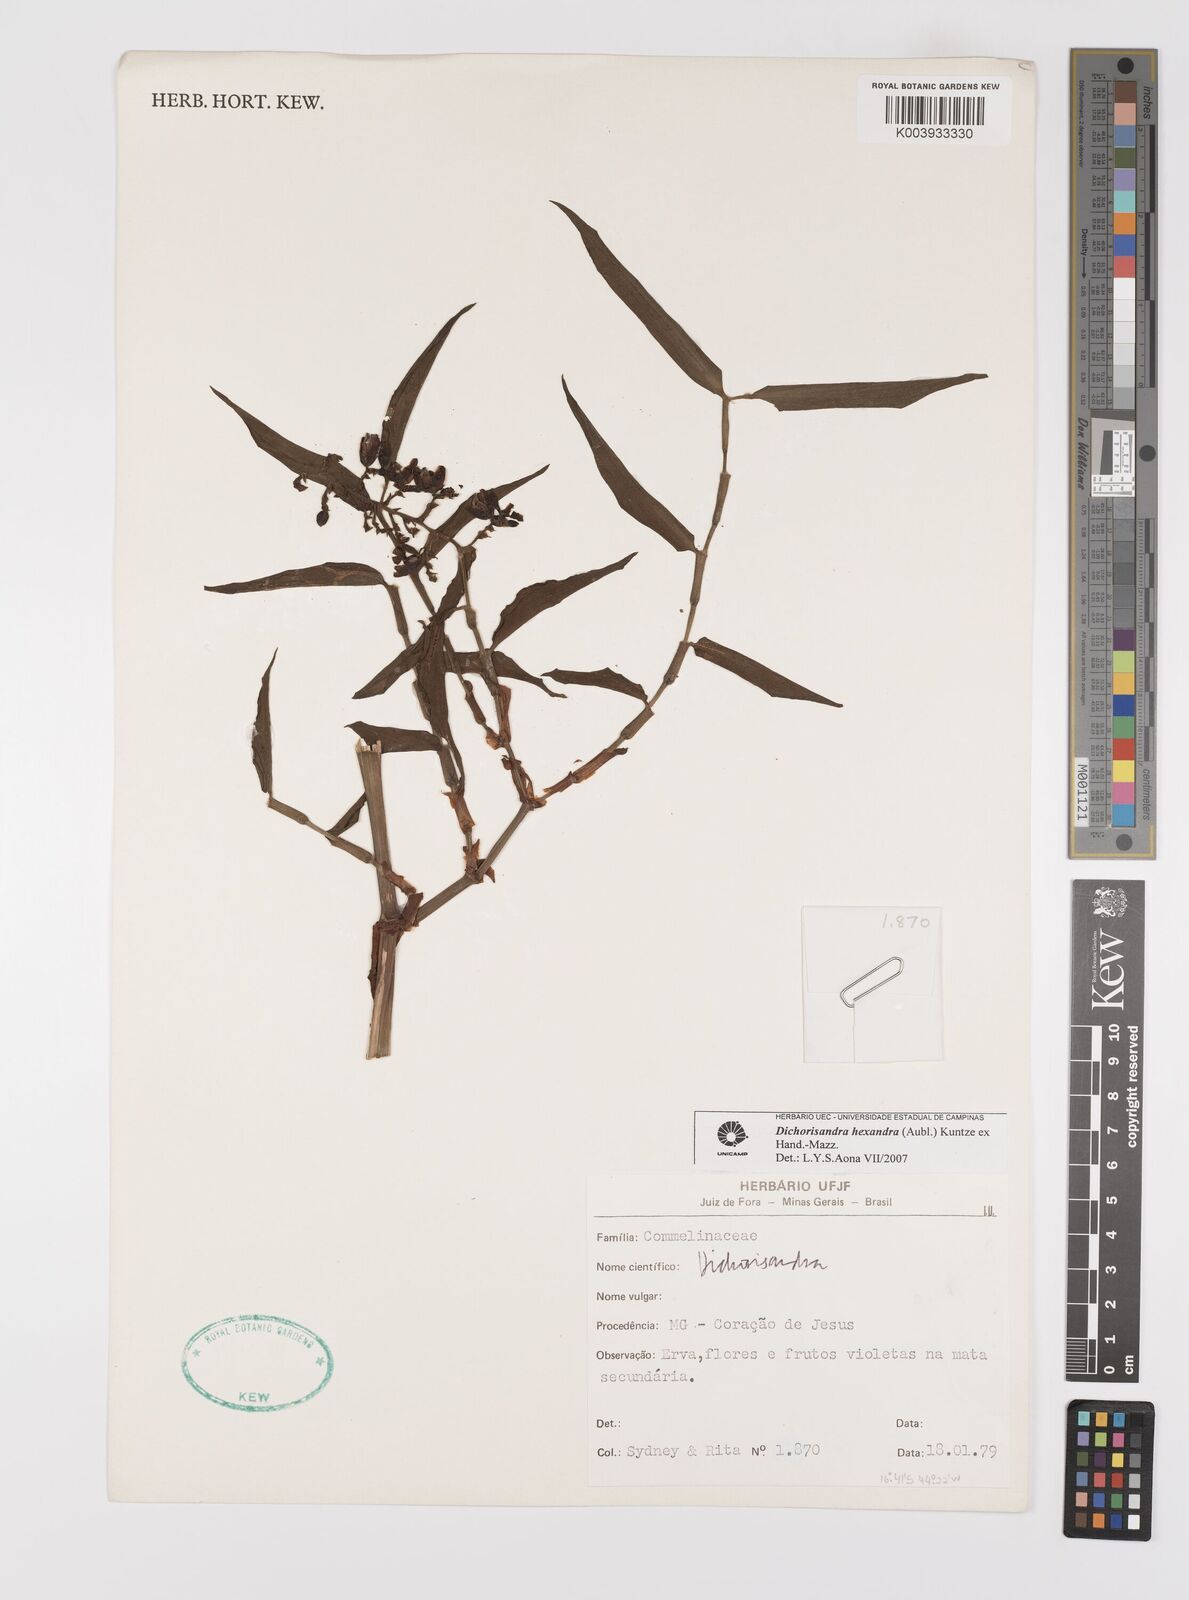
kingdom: Plantae
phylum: Tracheophyta
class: Liliopsida
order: Commelinales
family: Commelinaceae
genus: Dichorisandra
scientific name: Dichorisandra
